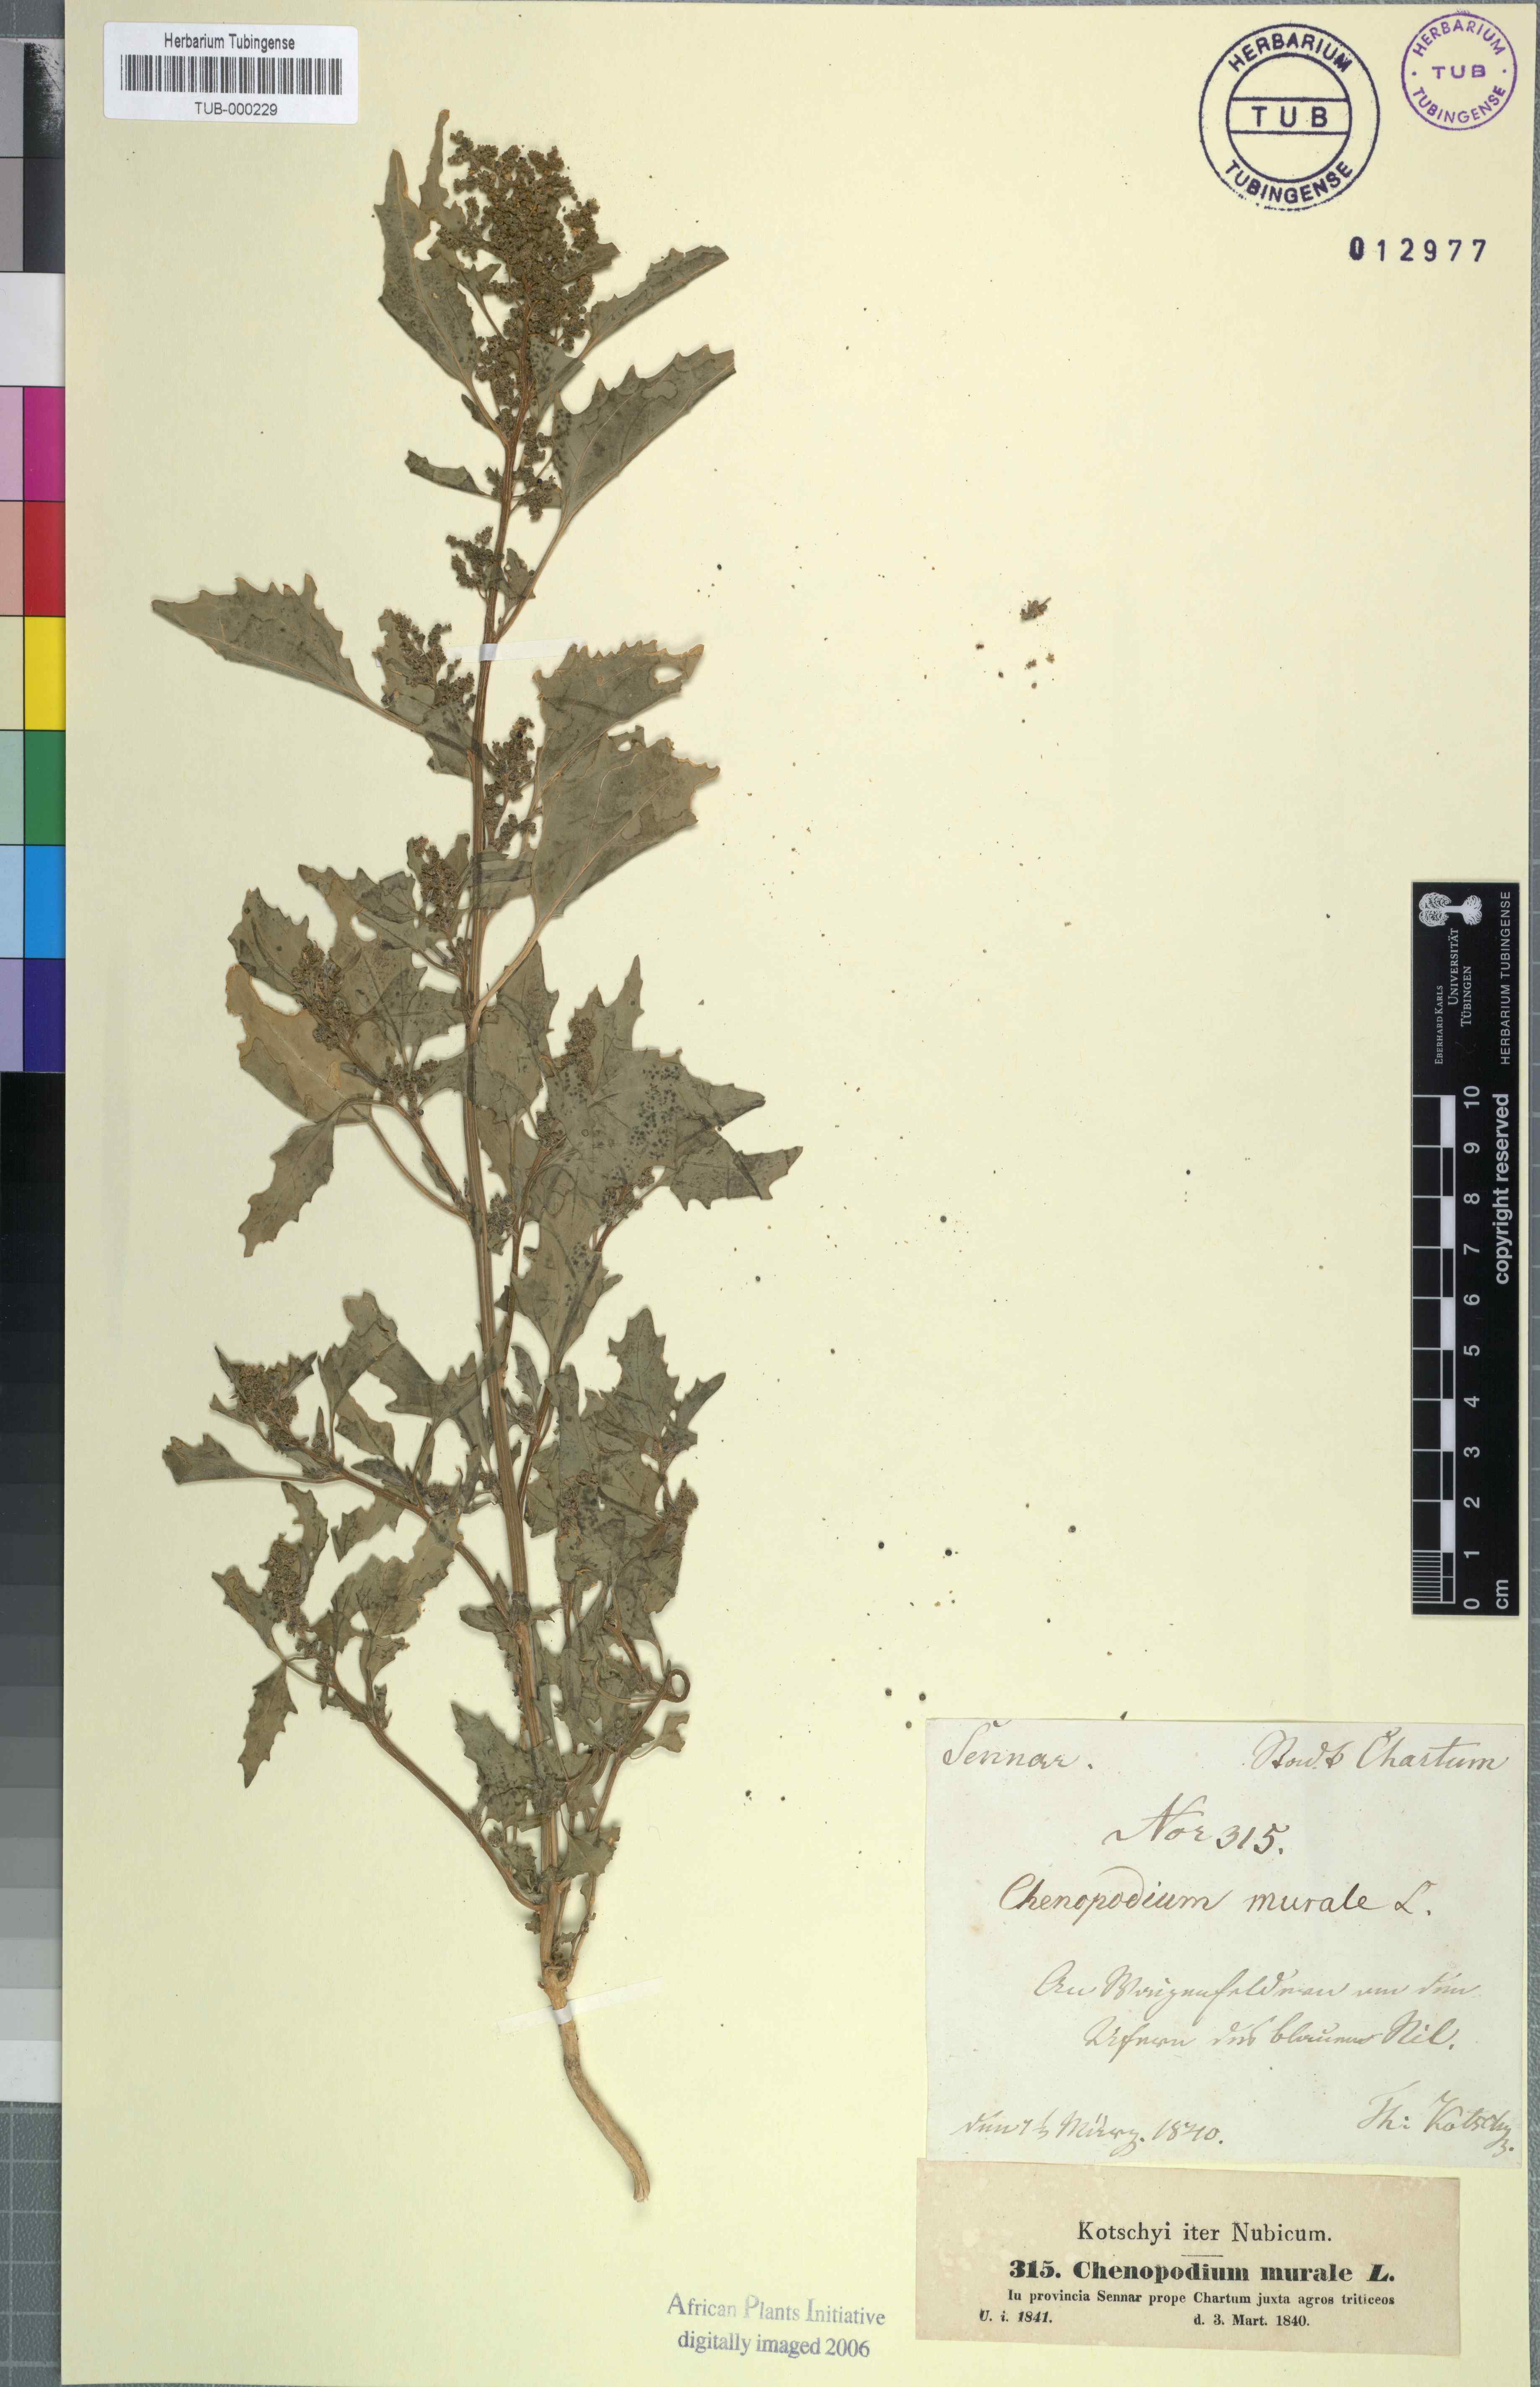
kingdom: Plantae
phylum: Tracheophyta
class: Magnoliopsida
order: Caryophyllales
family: Amaranthaceae
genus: Chenopodiastrum
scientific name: Chenopodiastrum murale
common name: Sowbane
